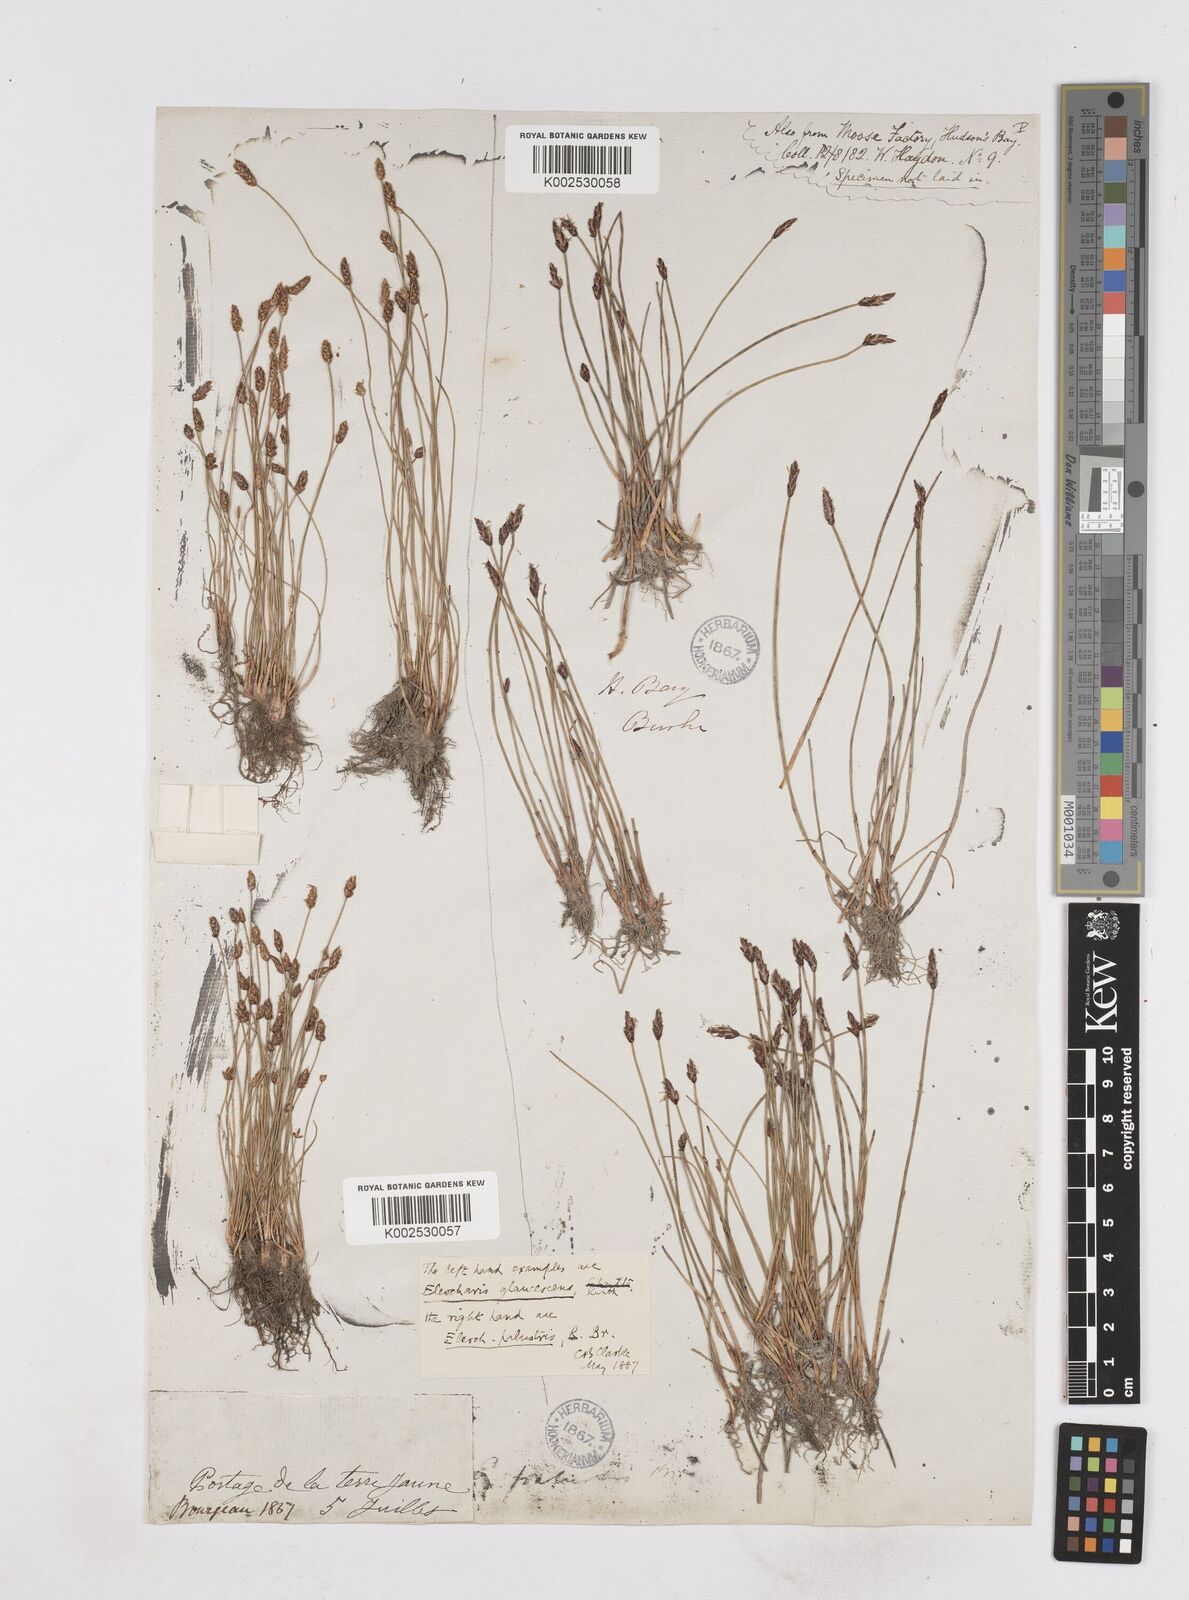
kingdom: Plantae
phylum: Tracheophyta
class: Liliopsida
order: Poales
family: Cyperaceae
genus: Eleocharis
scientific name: Eleocharis palustris
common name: Common spike-rush
